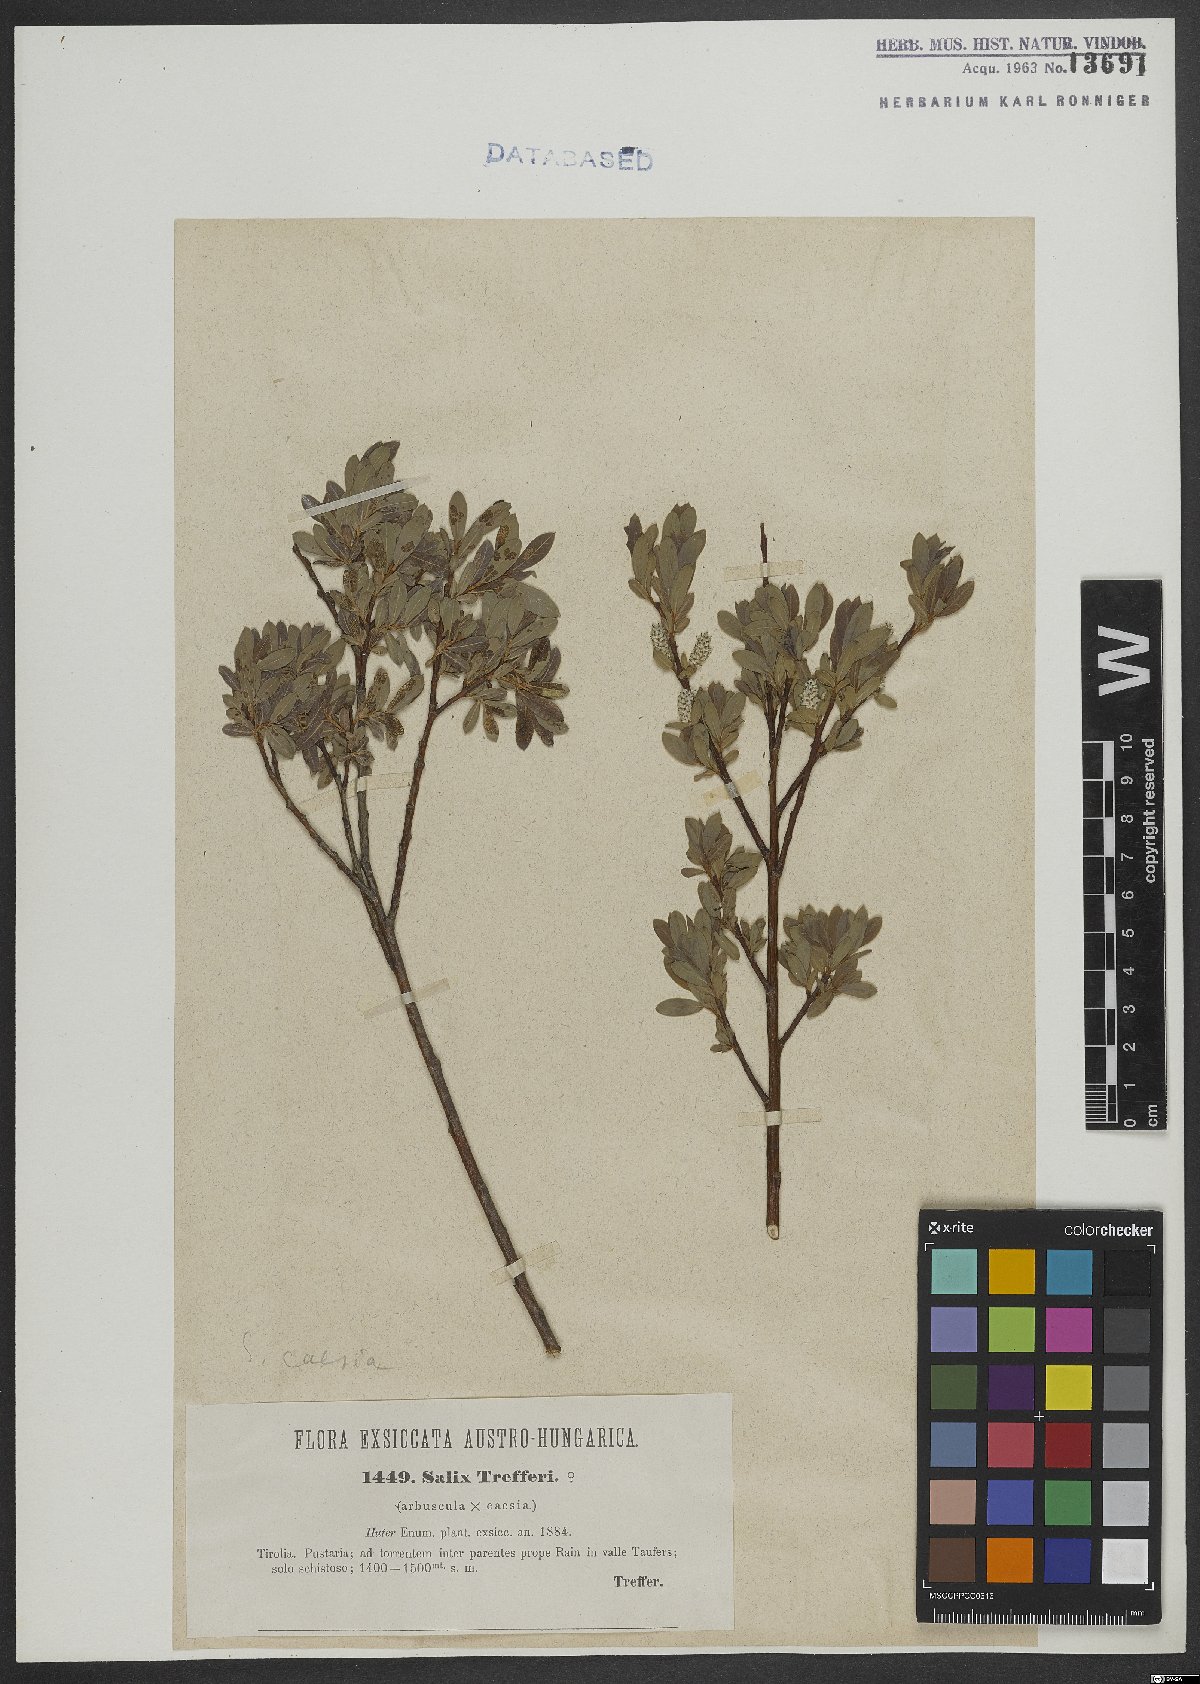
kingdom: Plantae
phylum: Tracheophyta
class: Magnoliopsida
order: Malpighiales
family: Salicaceae
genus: Salix
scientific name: Salix caesia
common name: Blue willow
